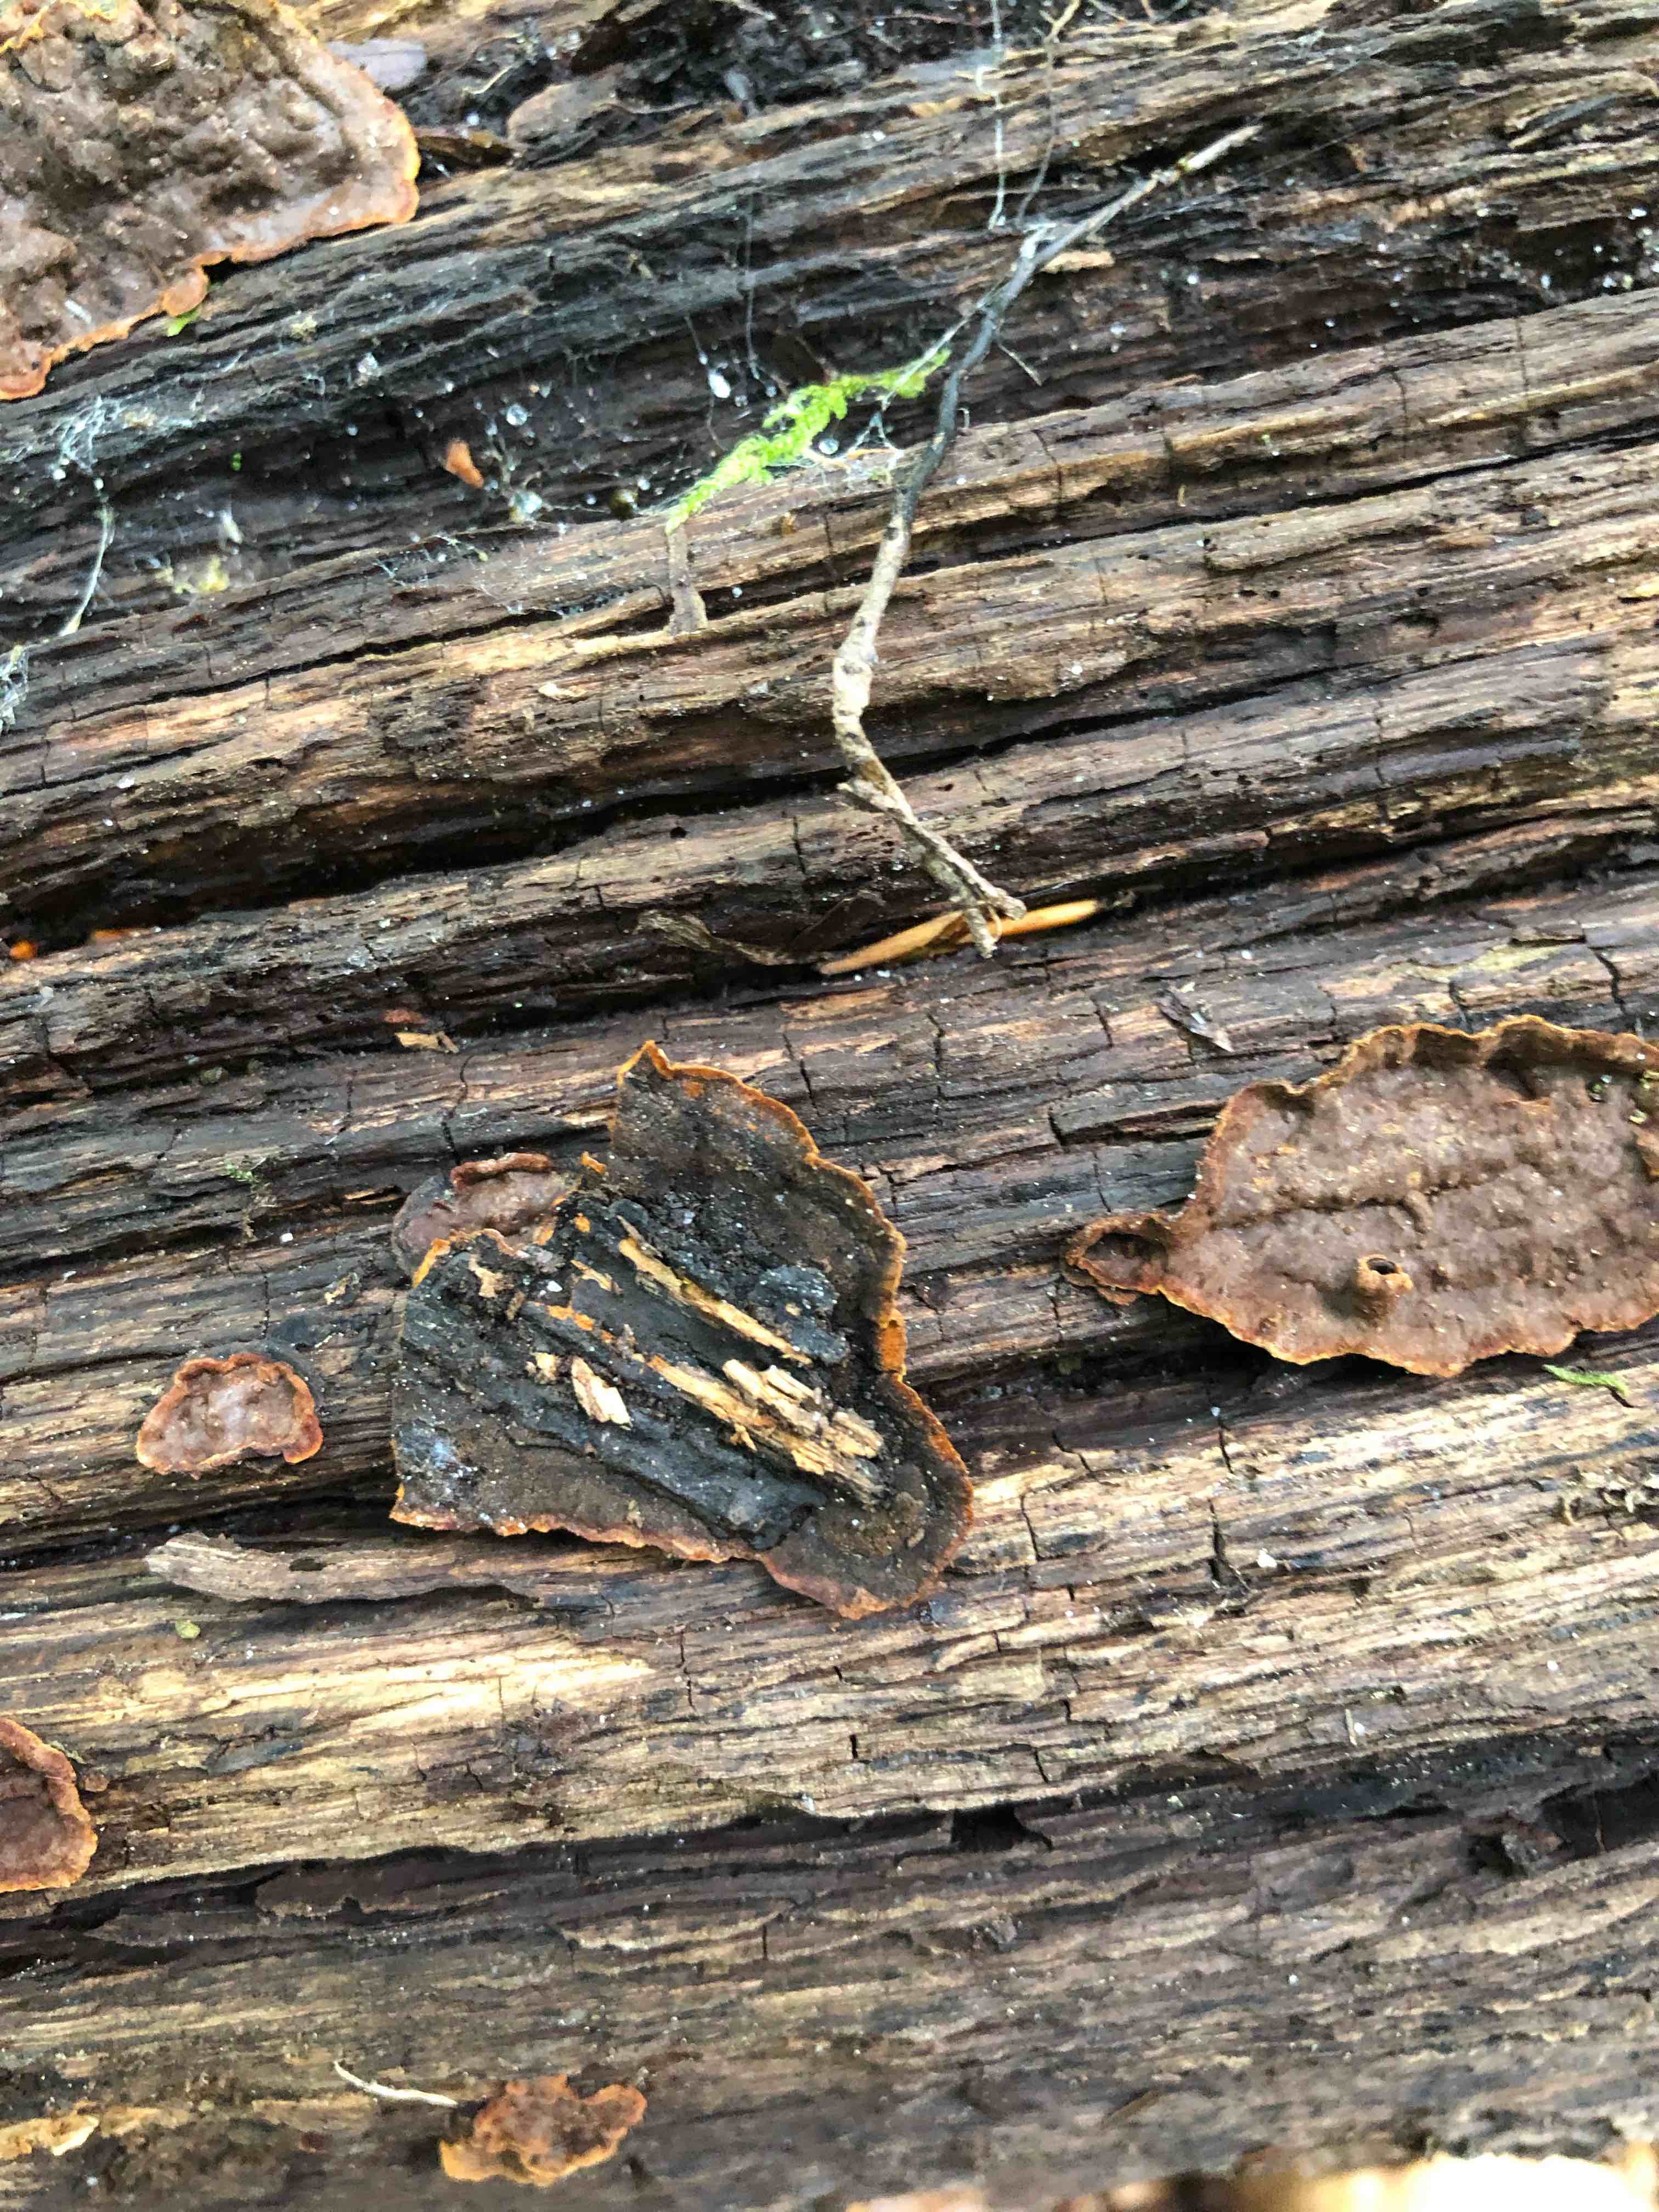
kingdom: Fungi
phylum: Basidiomycota
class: Agaricomycetes
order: Hymenochaetales
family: Hymenochaetaceae
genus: Hymenochaete
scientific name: Hymenochaete rubiginosa
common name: stiv ruslædersvamp
